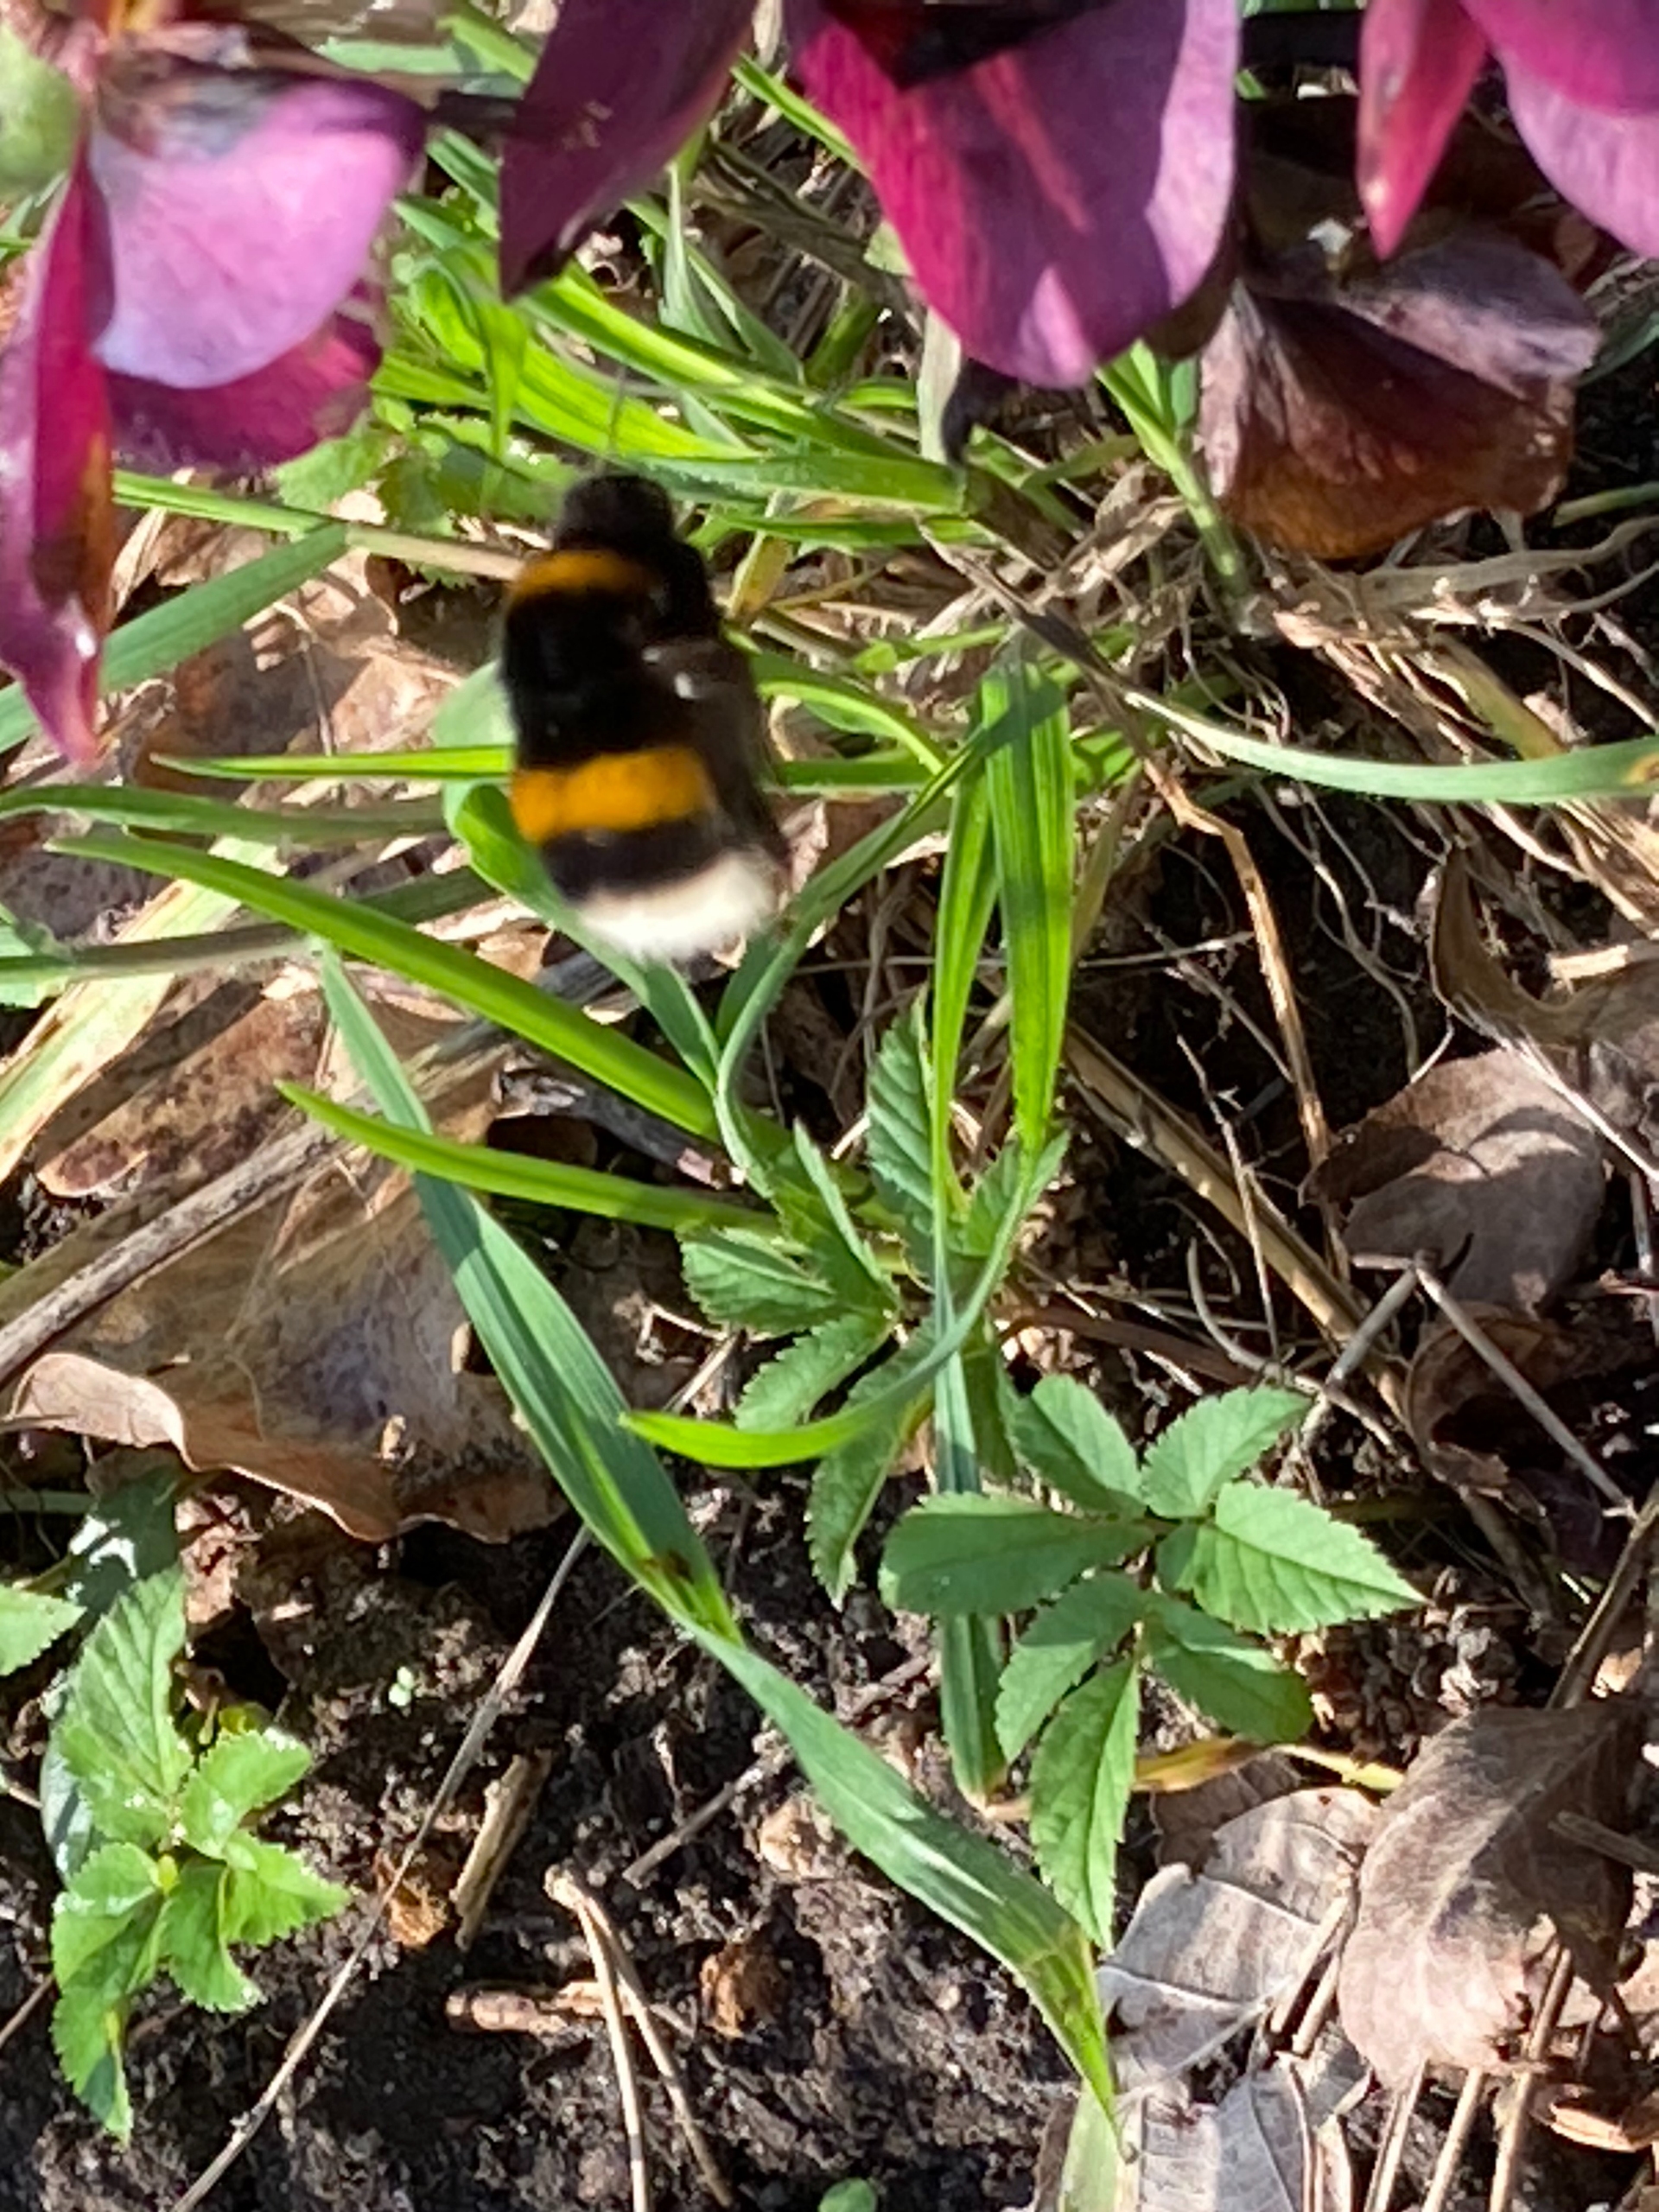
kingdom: Animalia
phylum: Arthropoda
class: Insecta
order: Hymenoptera
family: Apidae
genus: Bombus
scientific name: Bombus terrestris
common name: Mørk jordhumle
